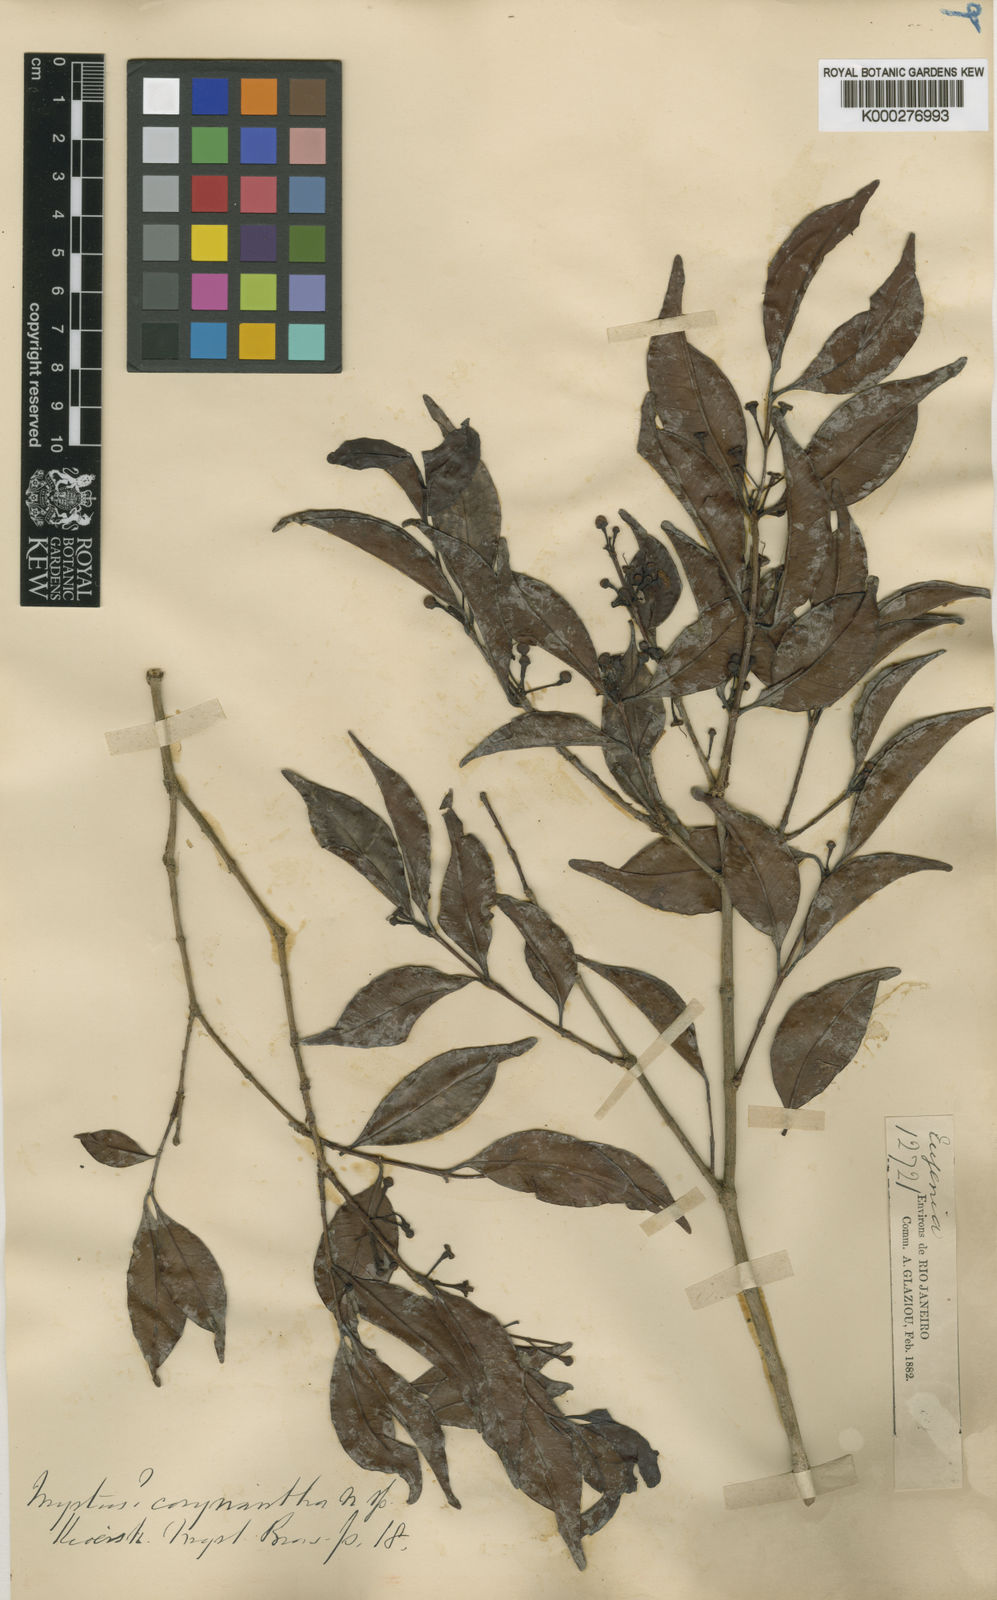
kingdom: Plantae
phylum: Tracheophyta
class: Magnoliopsida
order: Myrtales
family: Myrtaceae
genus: Myrtus
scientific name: Myrtus
